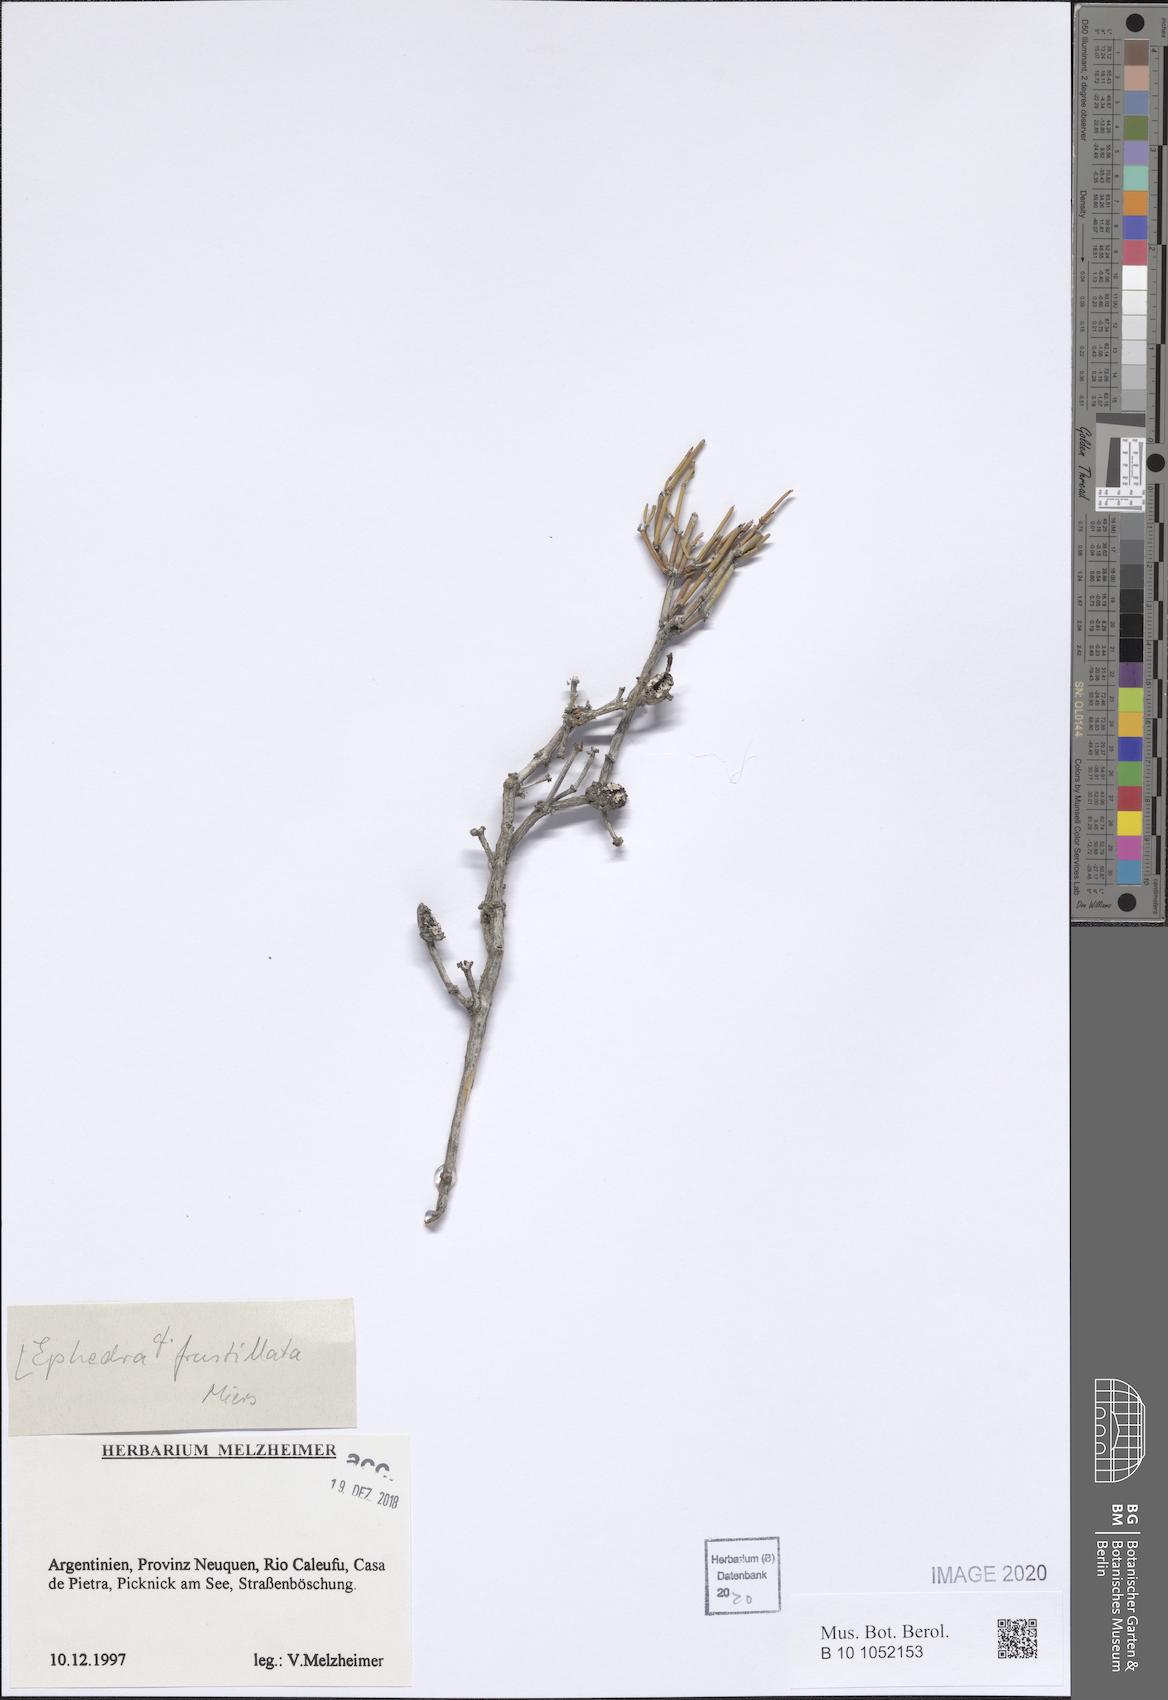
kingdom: Plantae
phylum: Tracheophyta
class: Gnetopsida
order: Ephedrales
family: Ephedraceae
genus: Ephedra
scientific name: Ephedra frustillata
